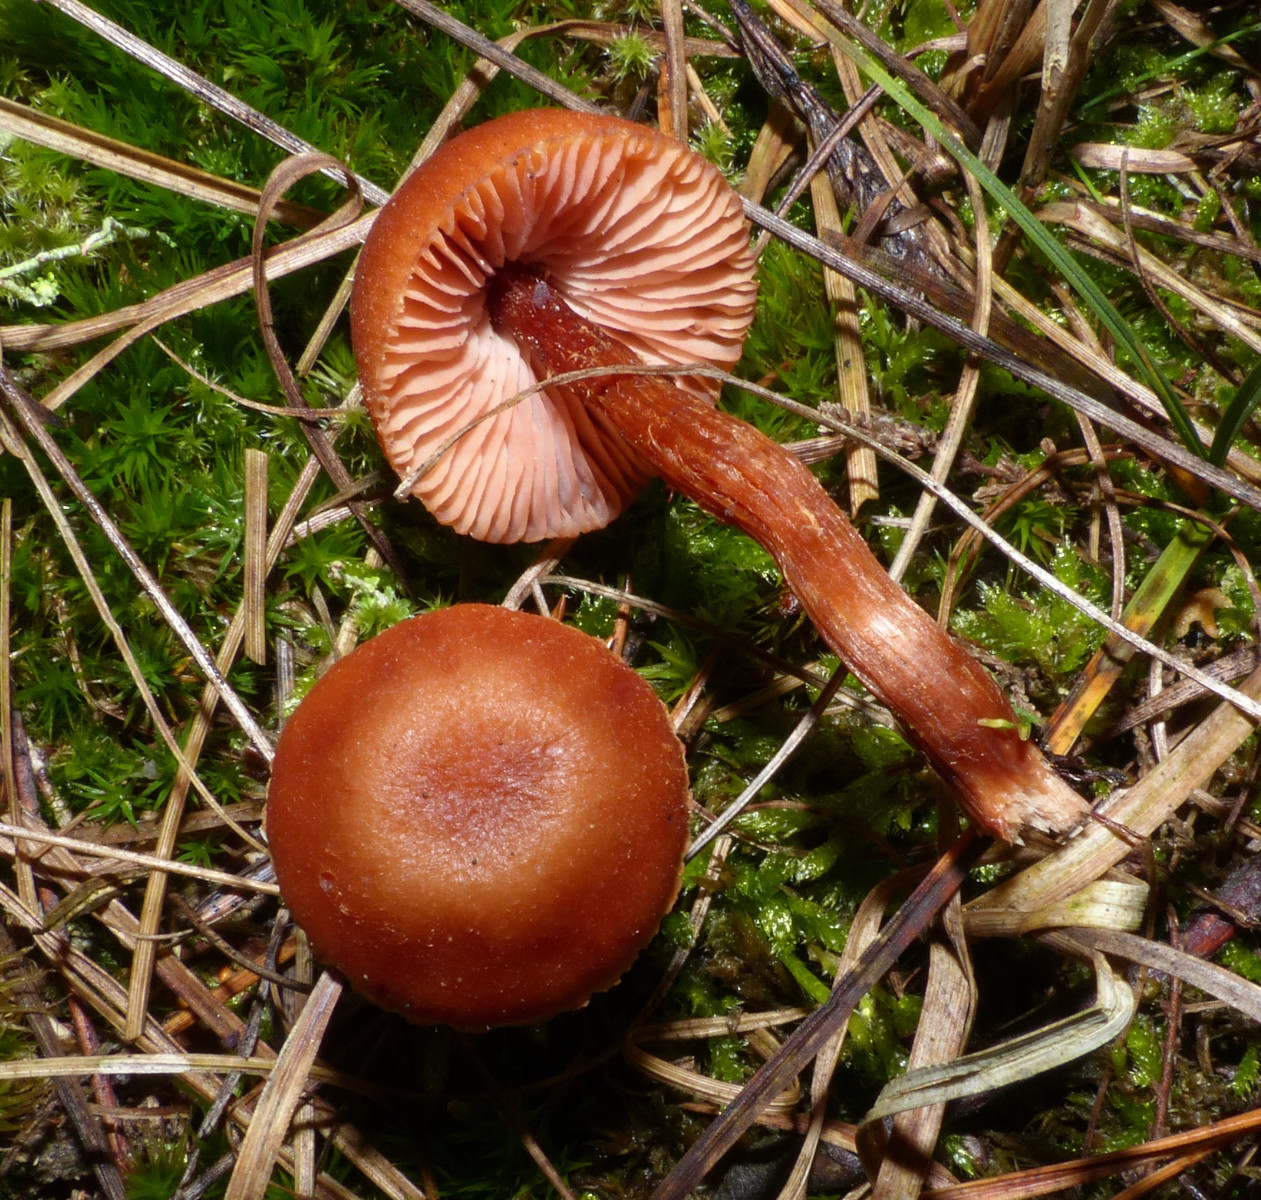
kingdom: Fungi
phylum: Basidiomycota
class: Agaricomycetes
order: Agaricales
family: Hydnangiaceae
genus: Laccaria
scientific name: Laccaria
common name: ametysthat
